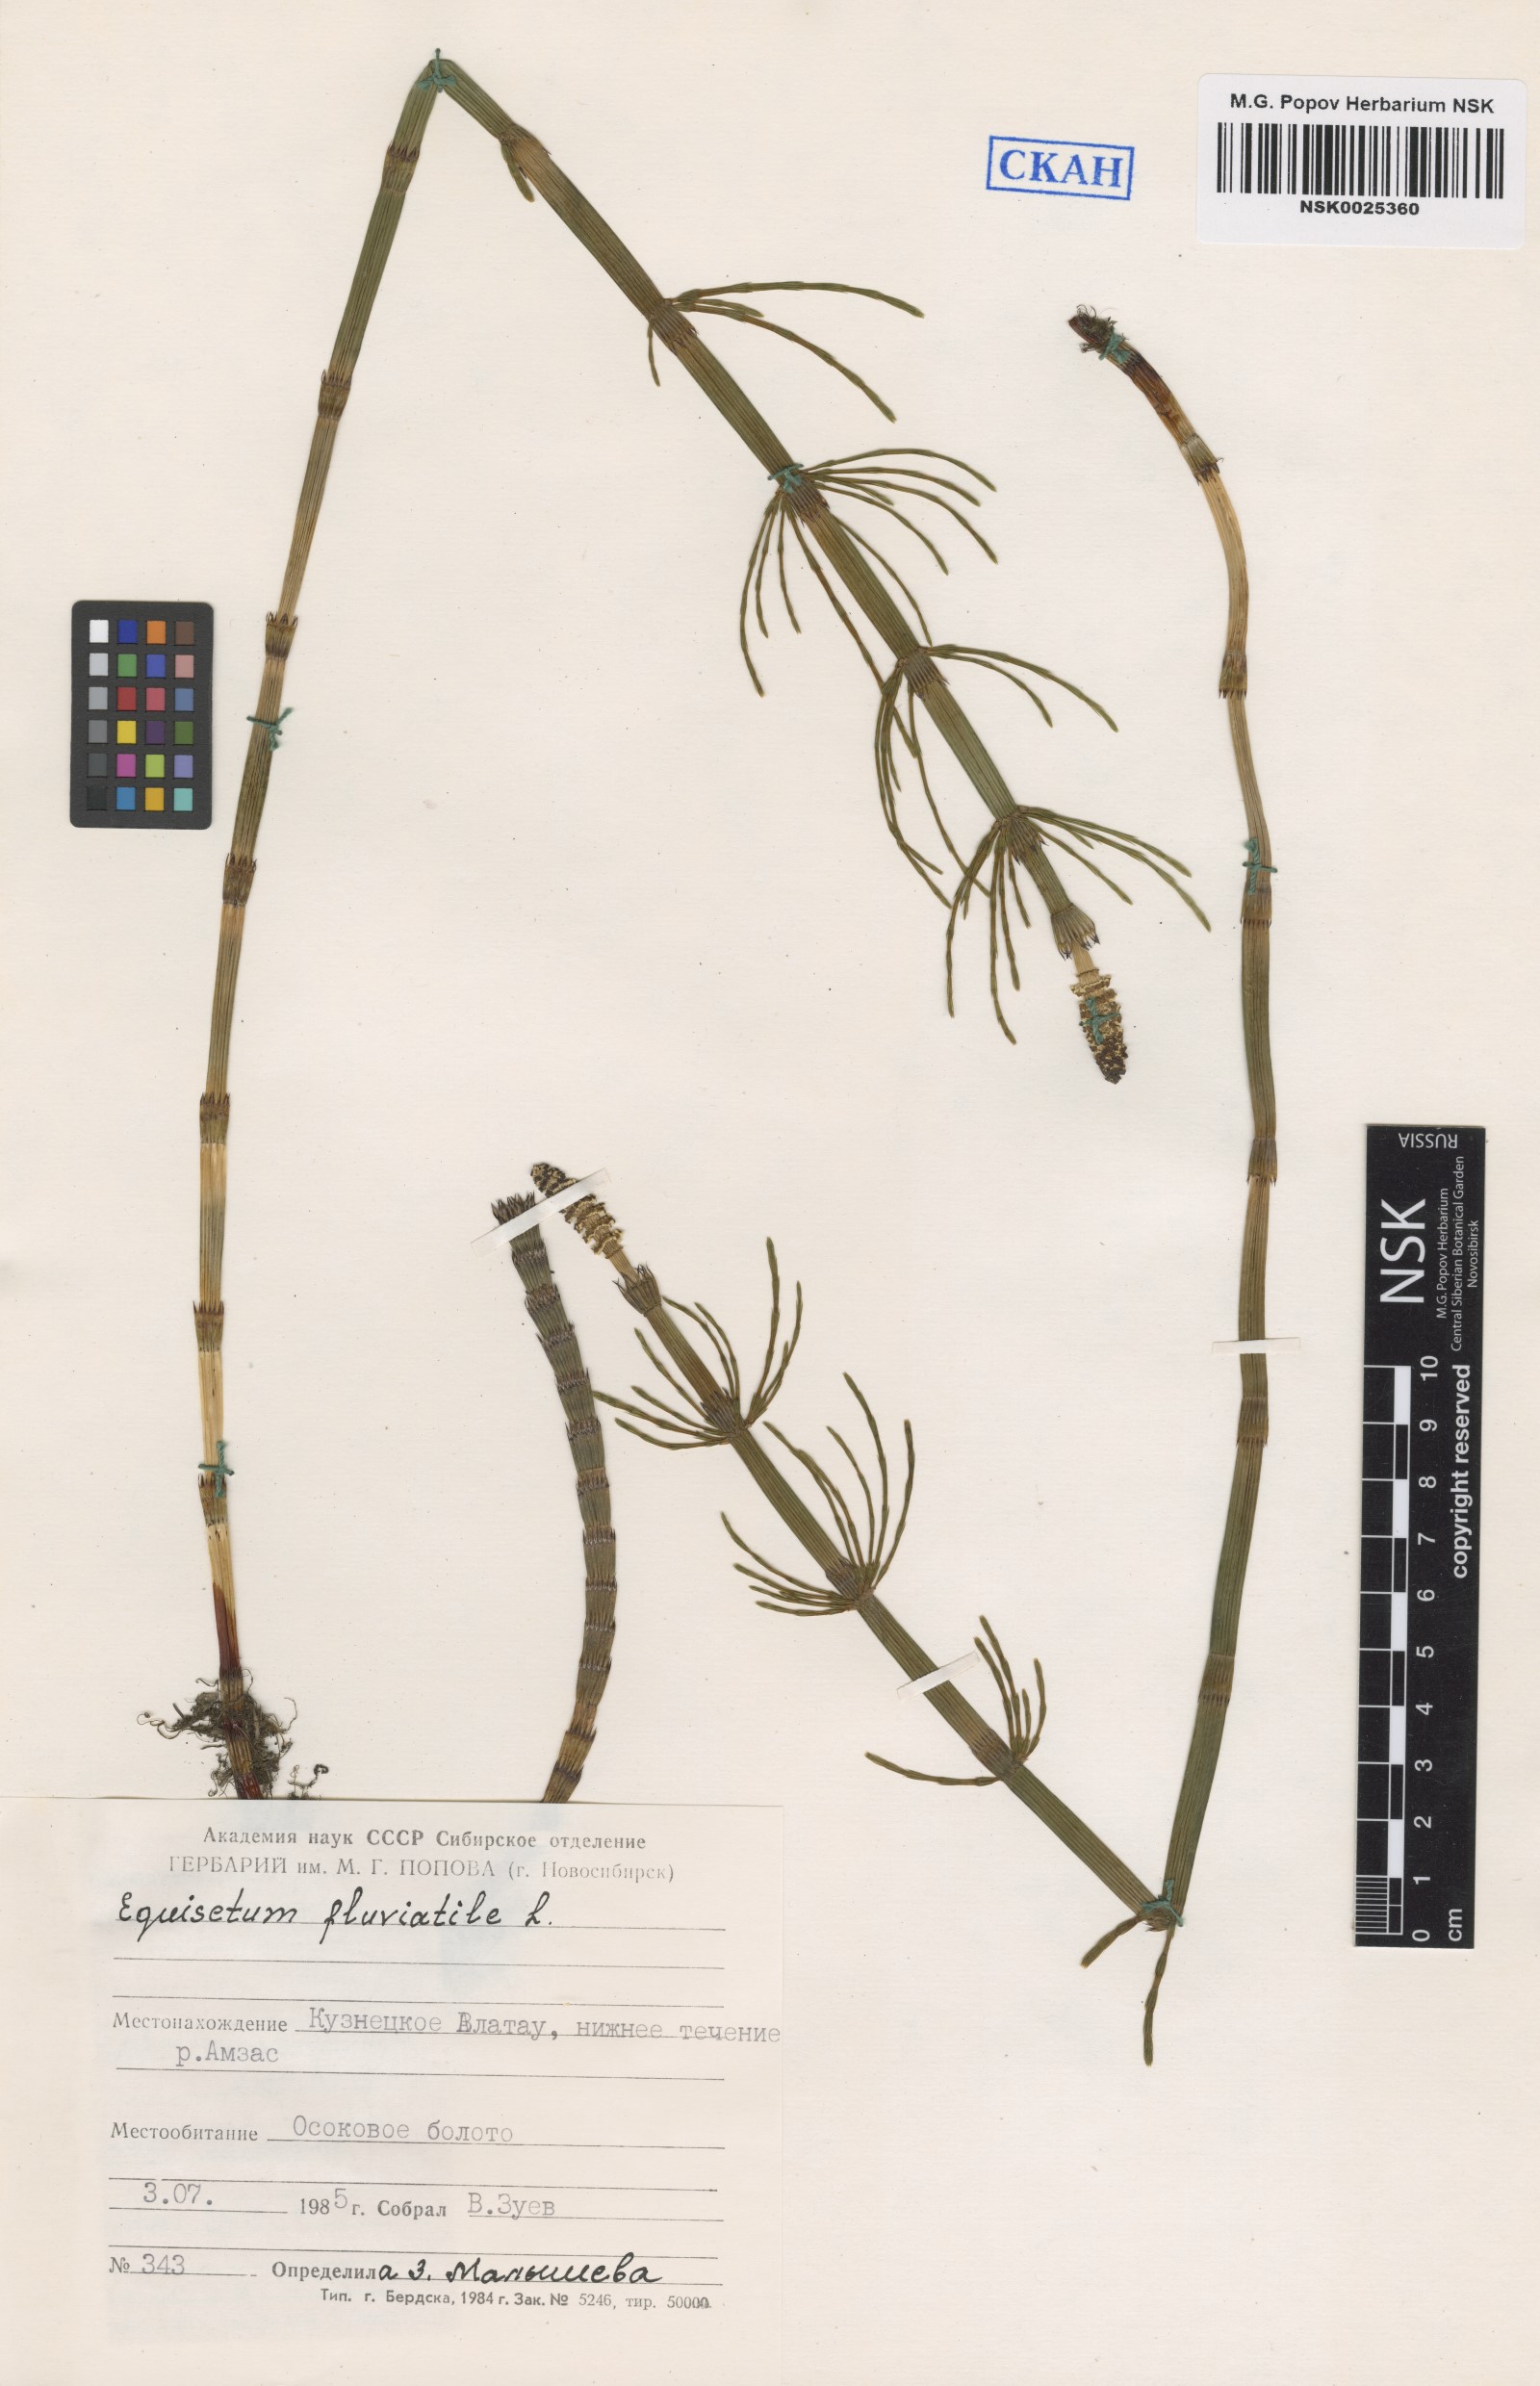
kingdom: Plantae
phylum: Tracheophyta
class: Polypodiopsida
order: Equisetales
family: Equisetaceae
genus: Equisetum
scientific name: Equisetum fluviatile
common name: Water horsetail
